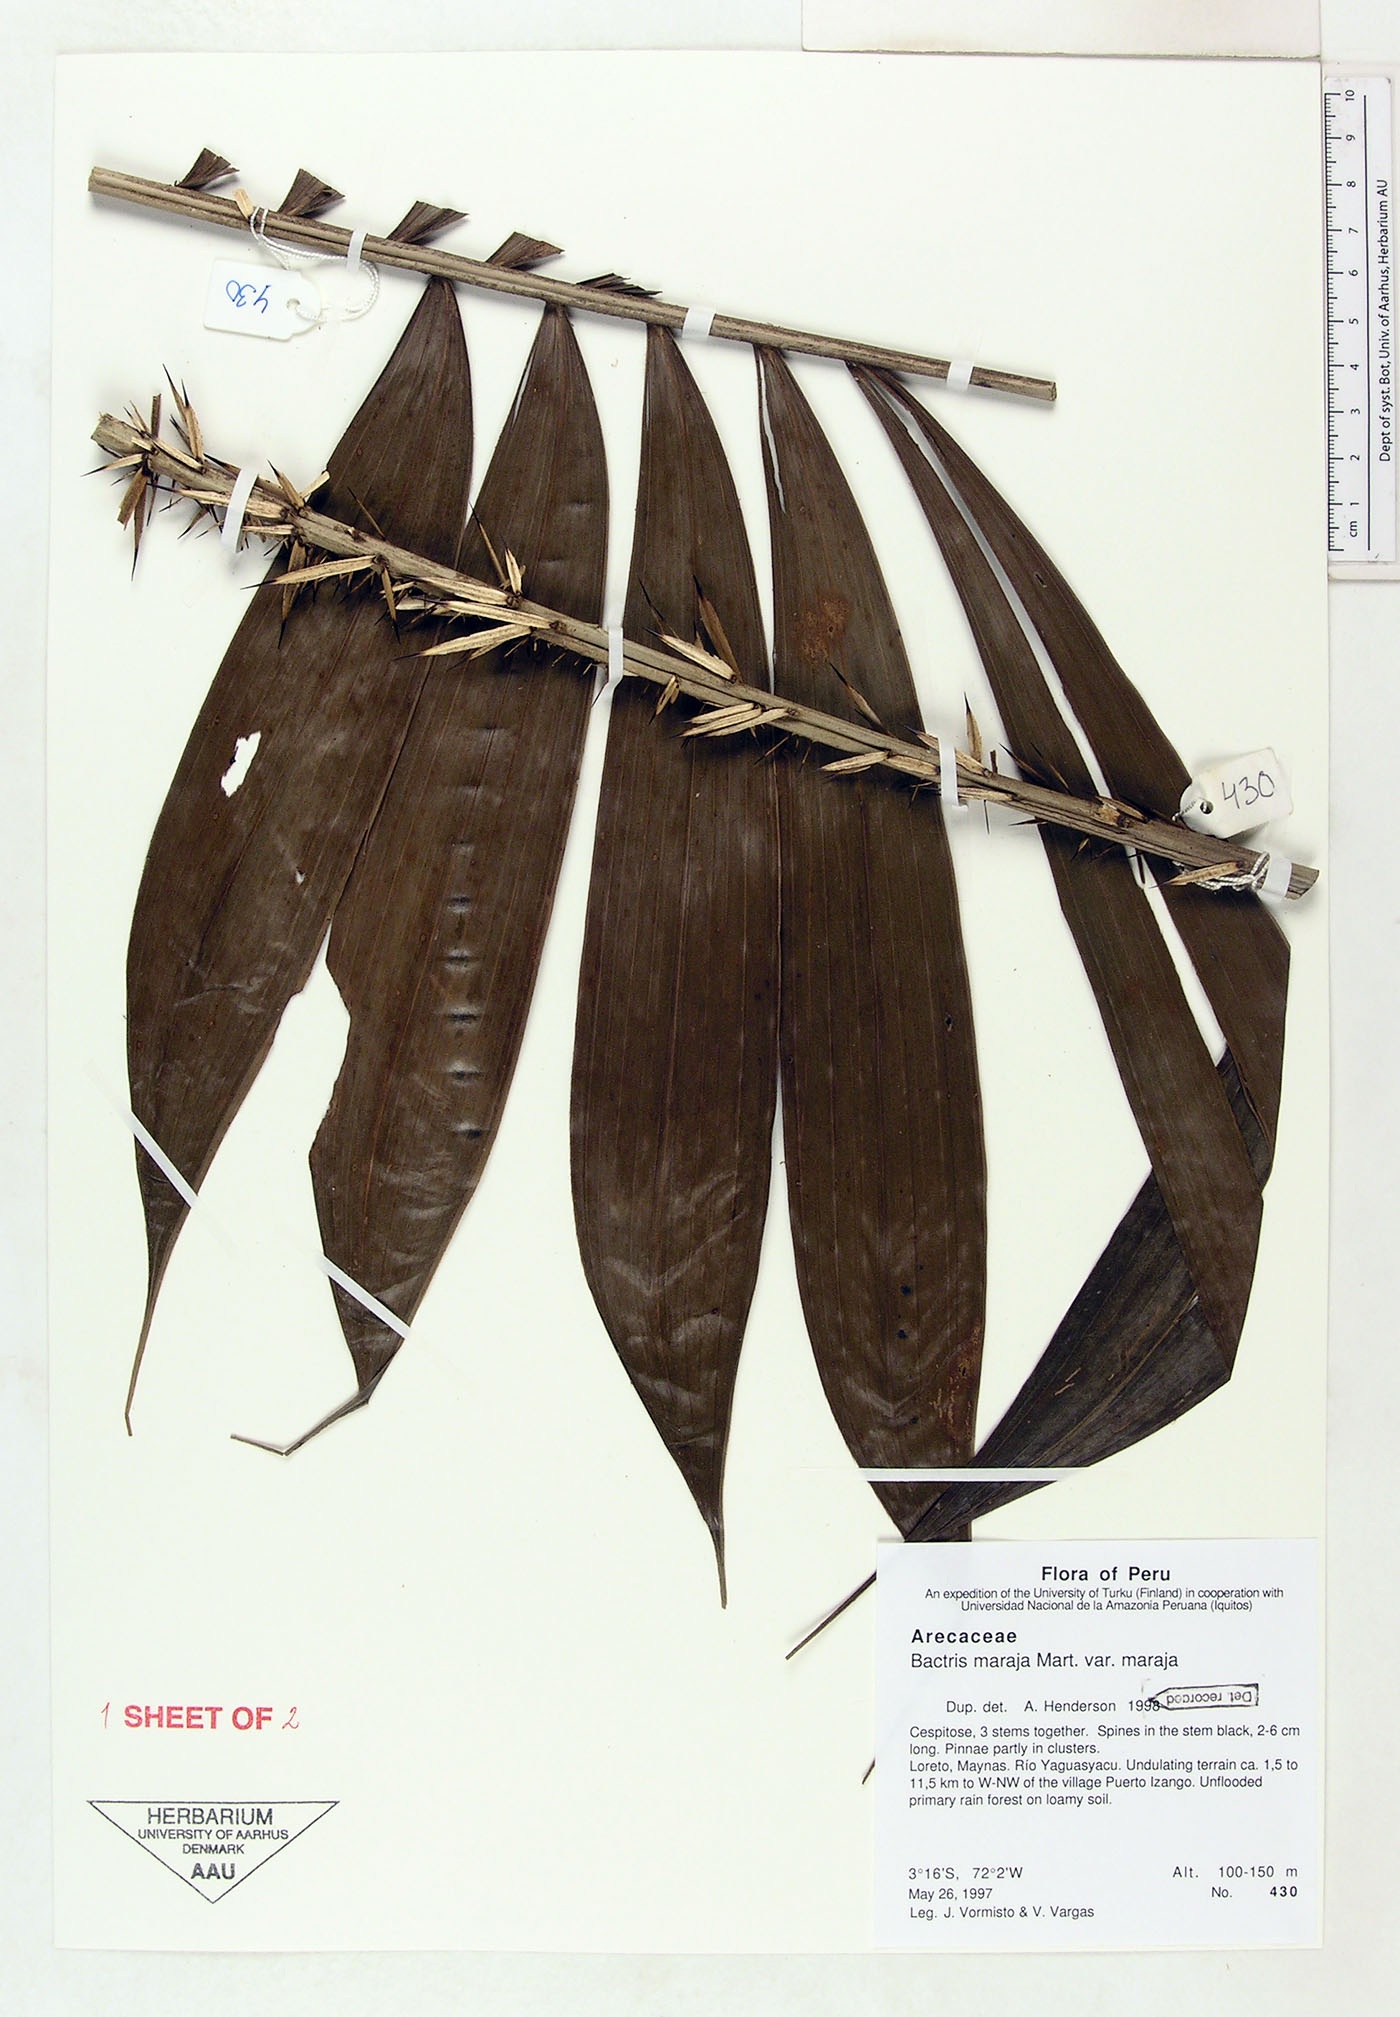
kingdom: Plantae
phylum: Tracheophyta
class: Liliopsida
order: Arecales
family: Arecaceae
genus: Bactris
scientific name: Bactris maraja
